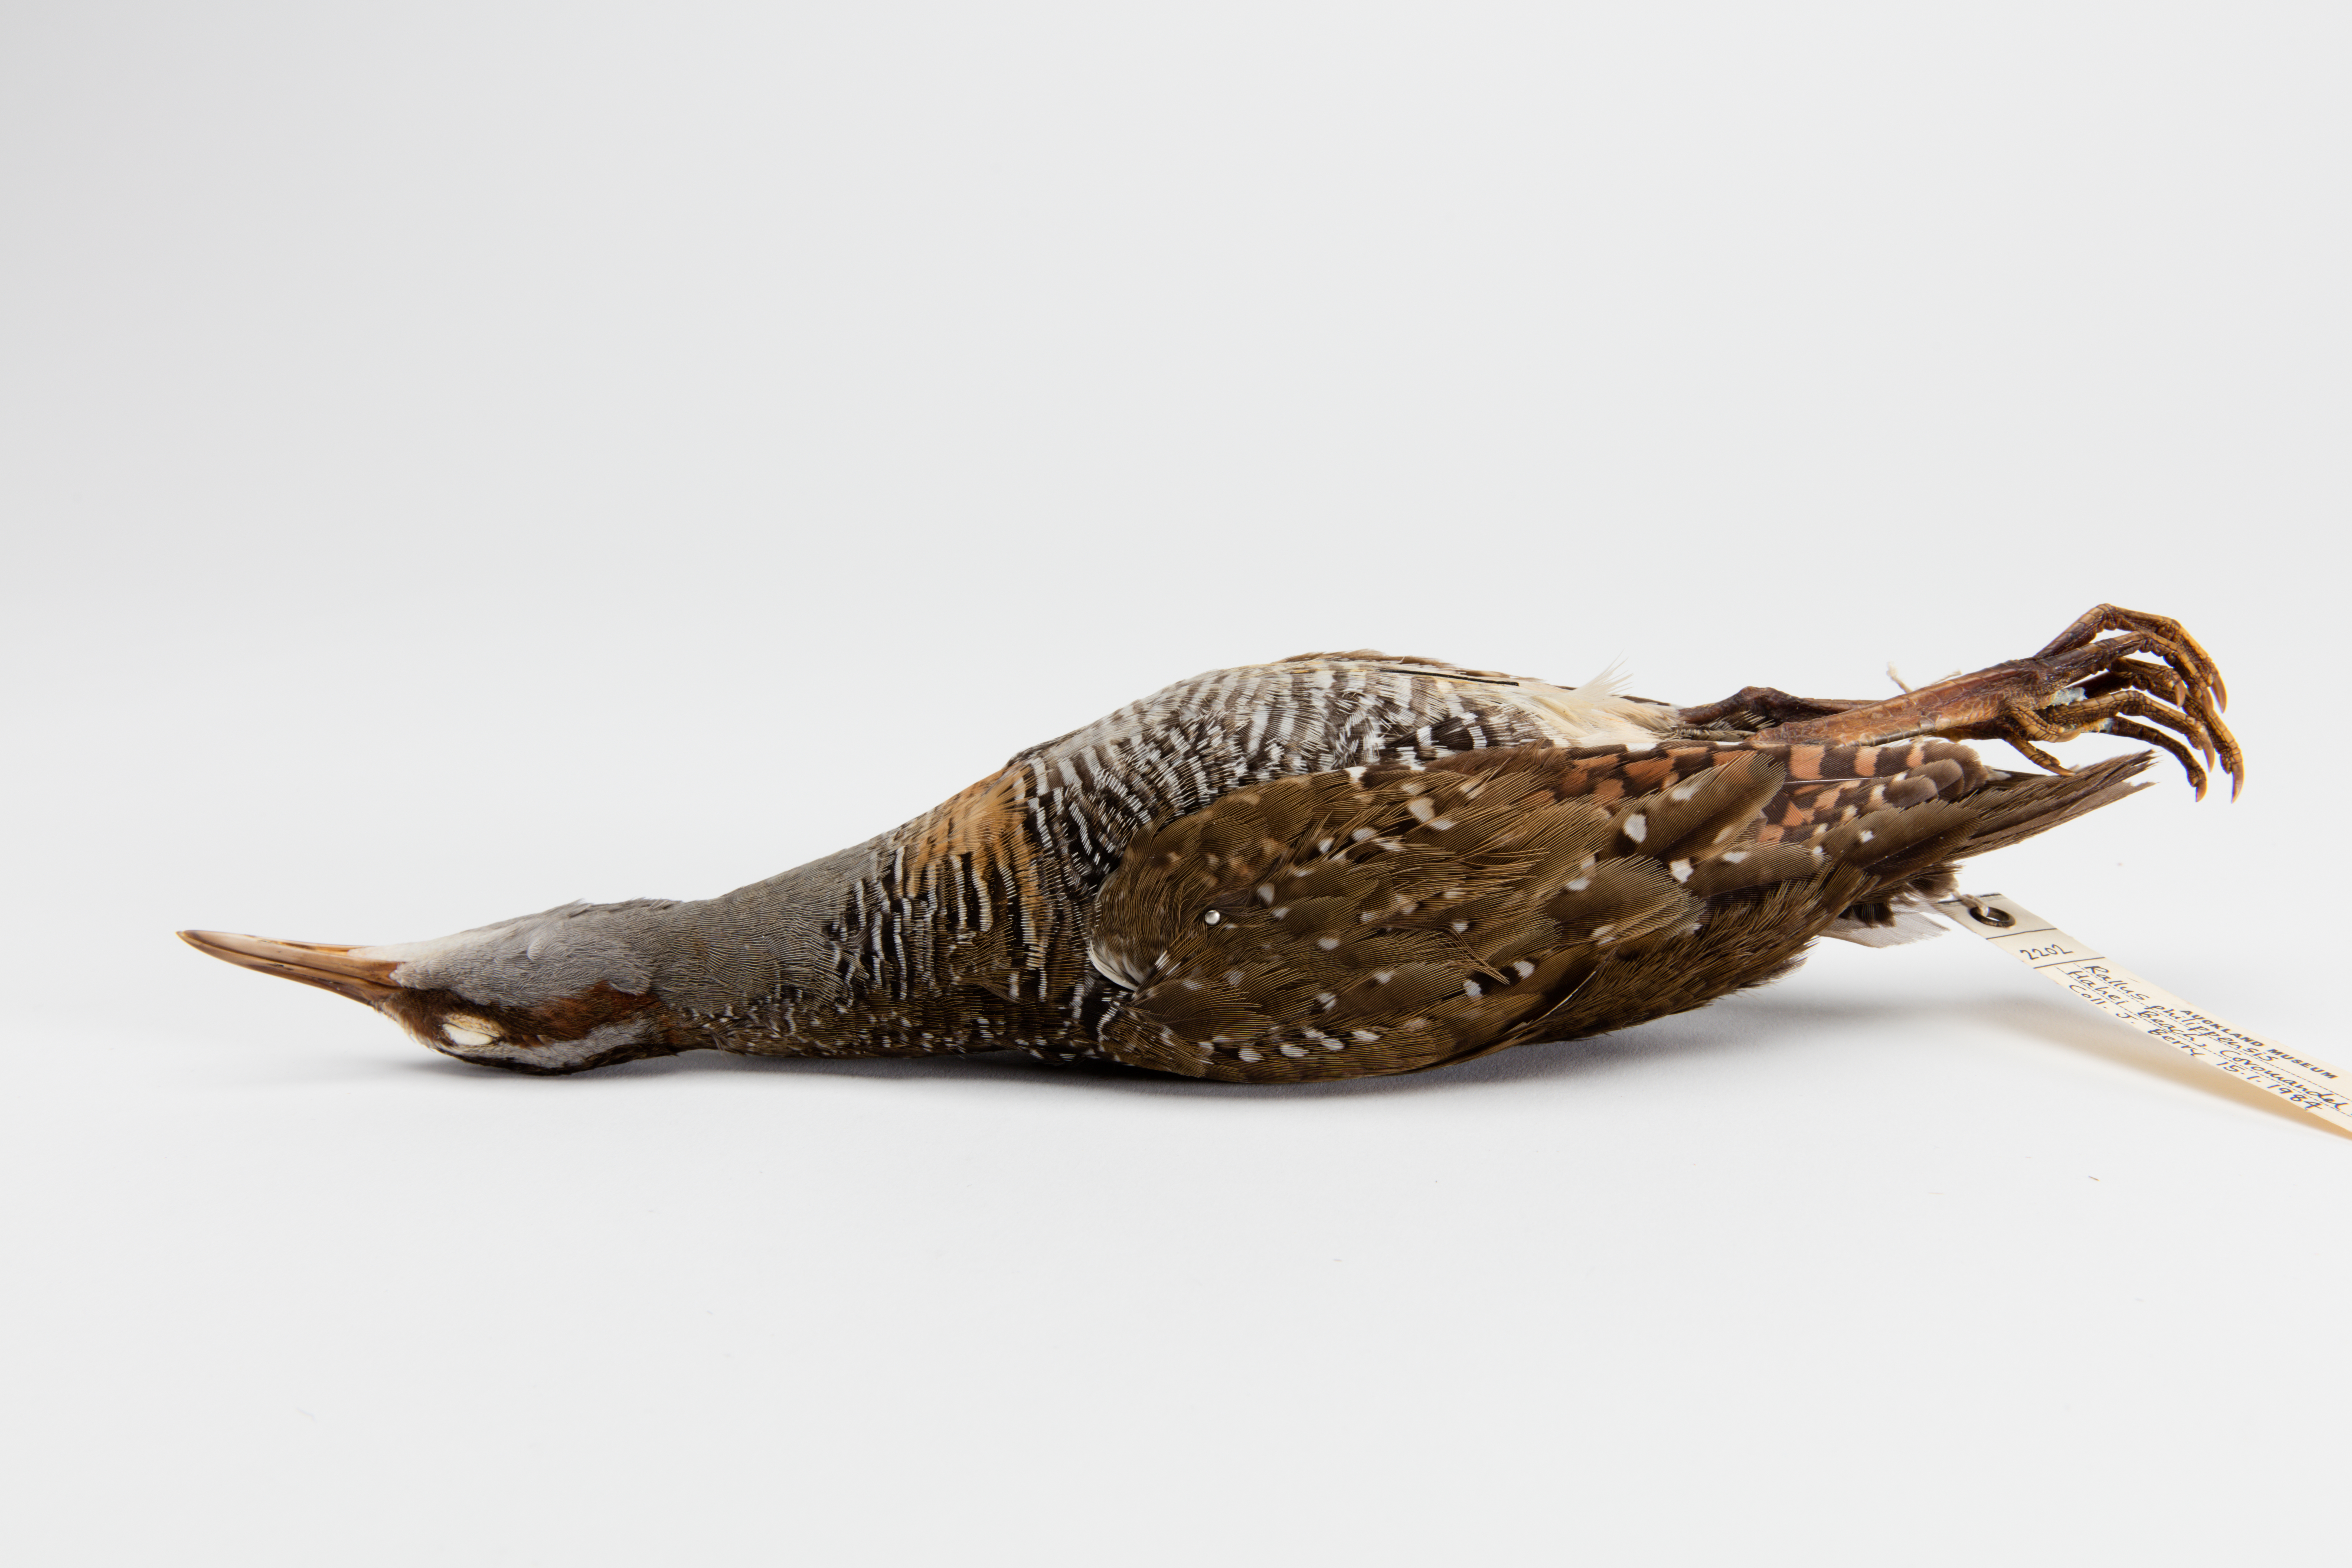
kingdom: Animalia
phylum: Chordata
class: Aves
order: Gruiformes
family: Rallidae
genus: Gallirallus
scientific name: Gallirallus philippensis
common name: Buff-banded rail
